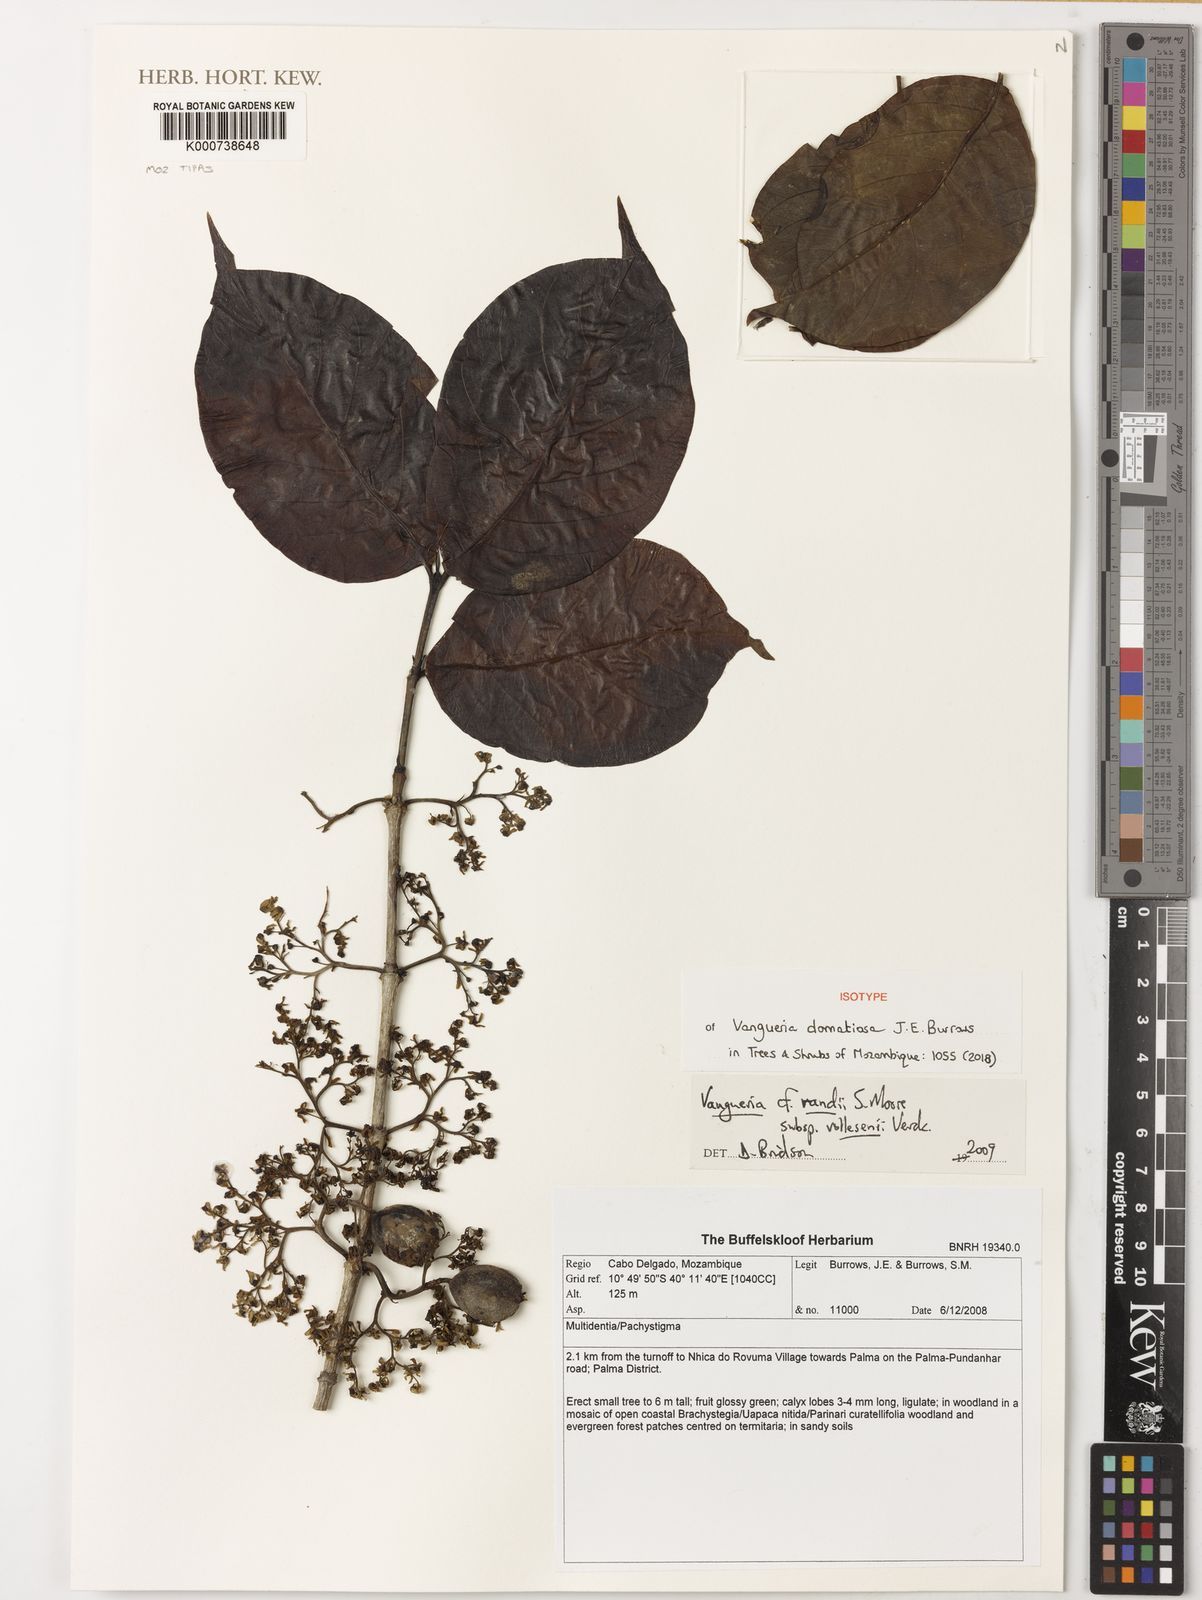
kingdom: Plantae
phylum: Tracheophyta
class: Magnoliopsida
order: Gentianales
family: Rubiaceae
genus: Vangueria
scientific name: Vangueria domatiosa
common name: Rovuma wild medlar
